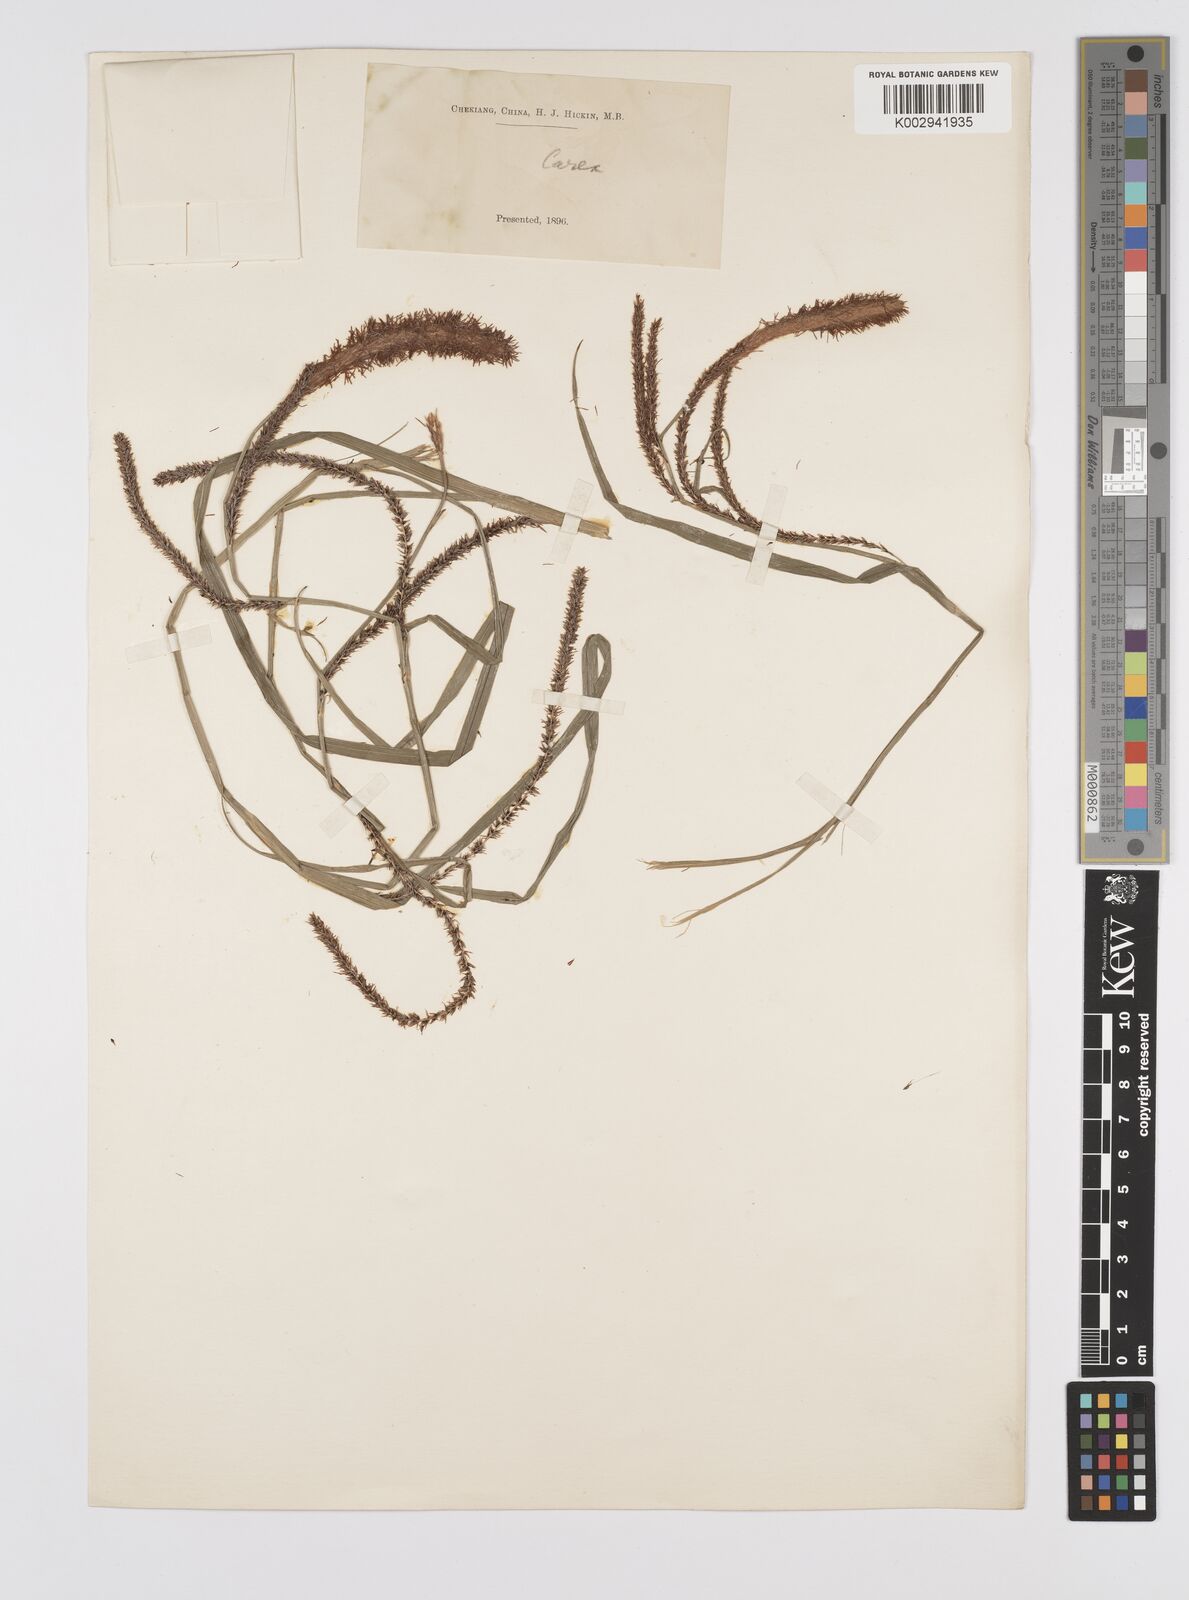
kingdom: Plantae
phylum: Tracheophyta
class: Liliopsida
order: Poales
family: Cyperaceae
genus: Carex
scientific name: Carex tumida
